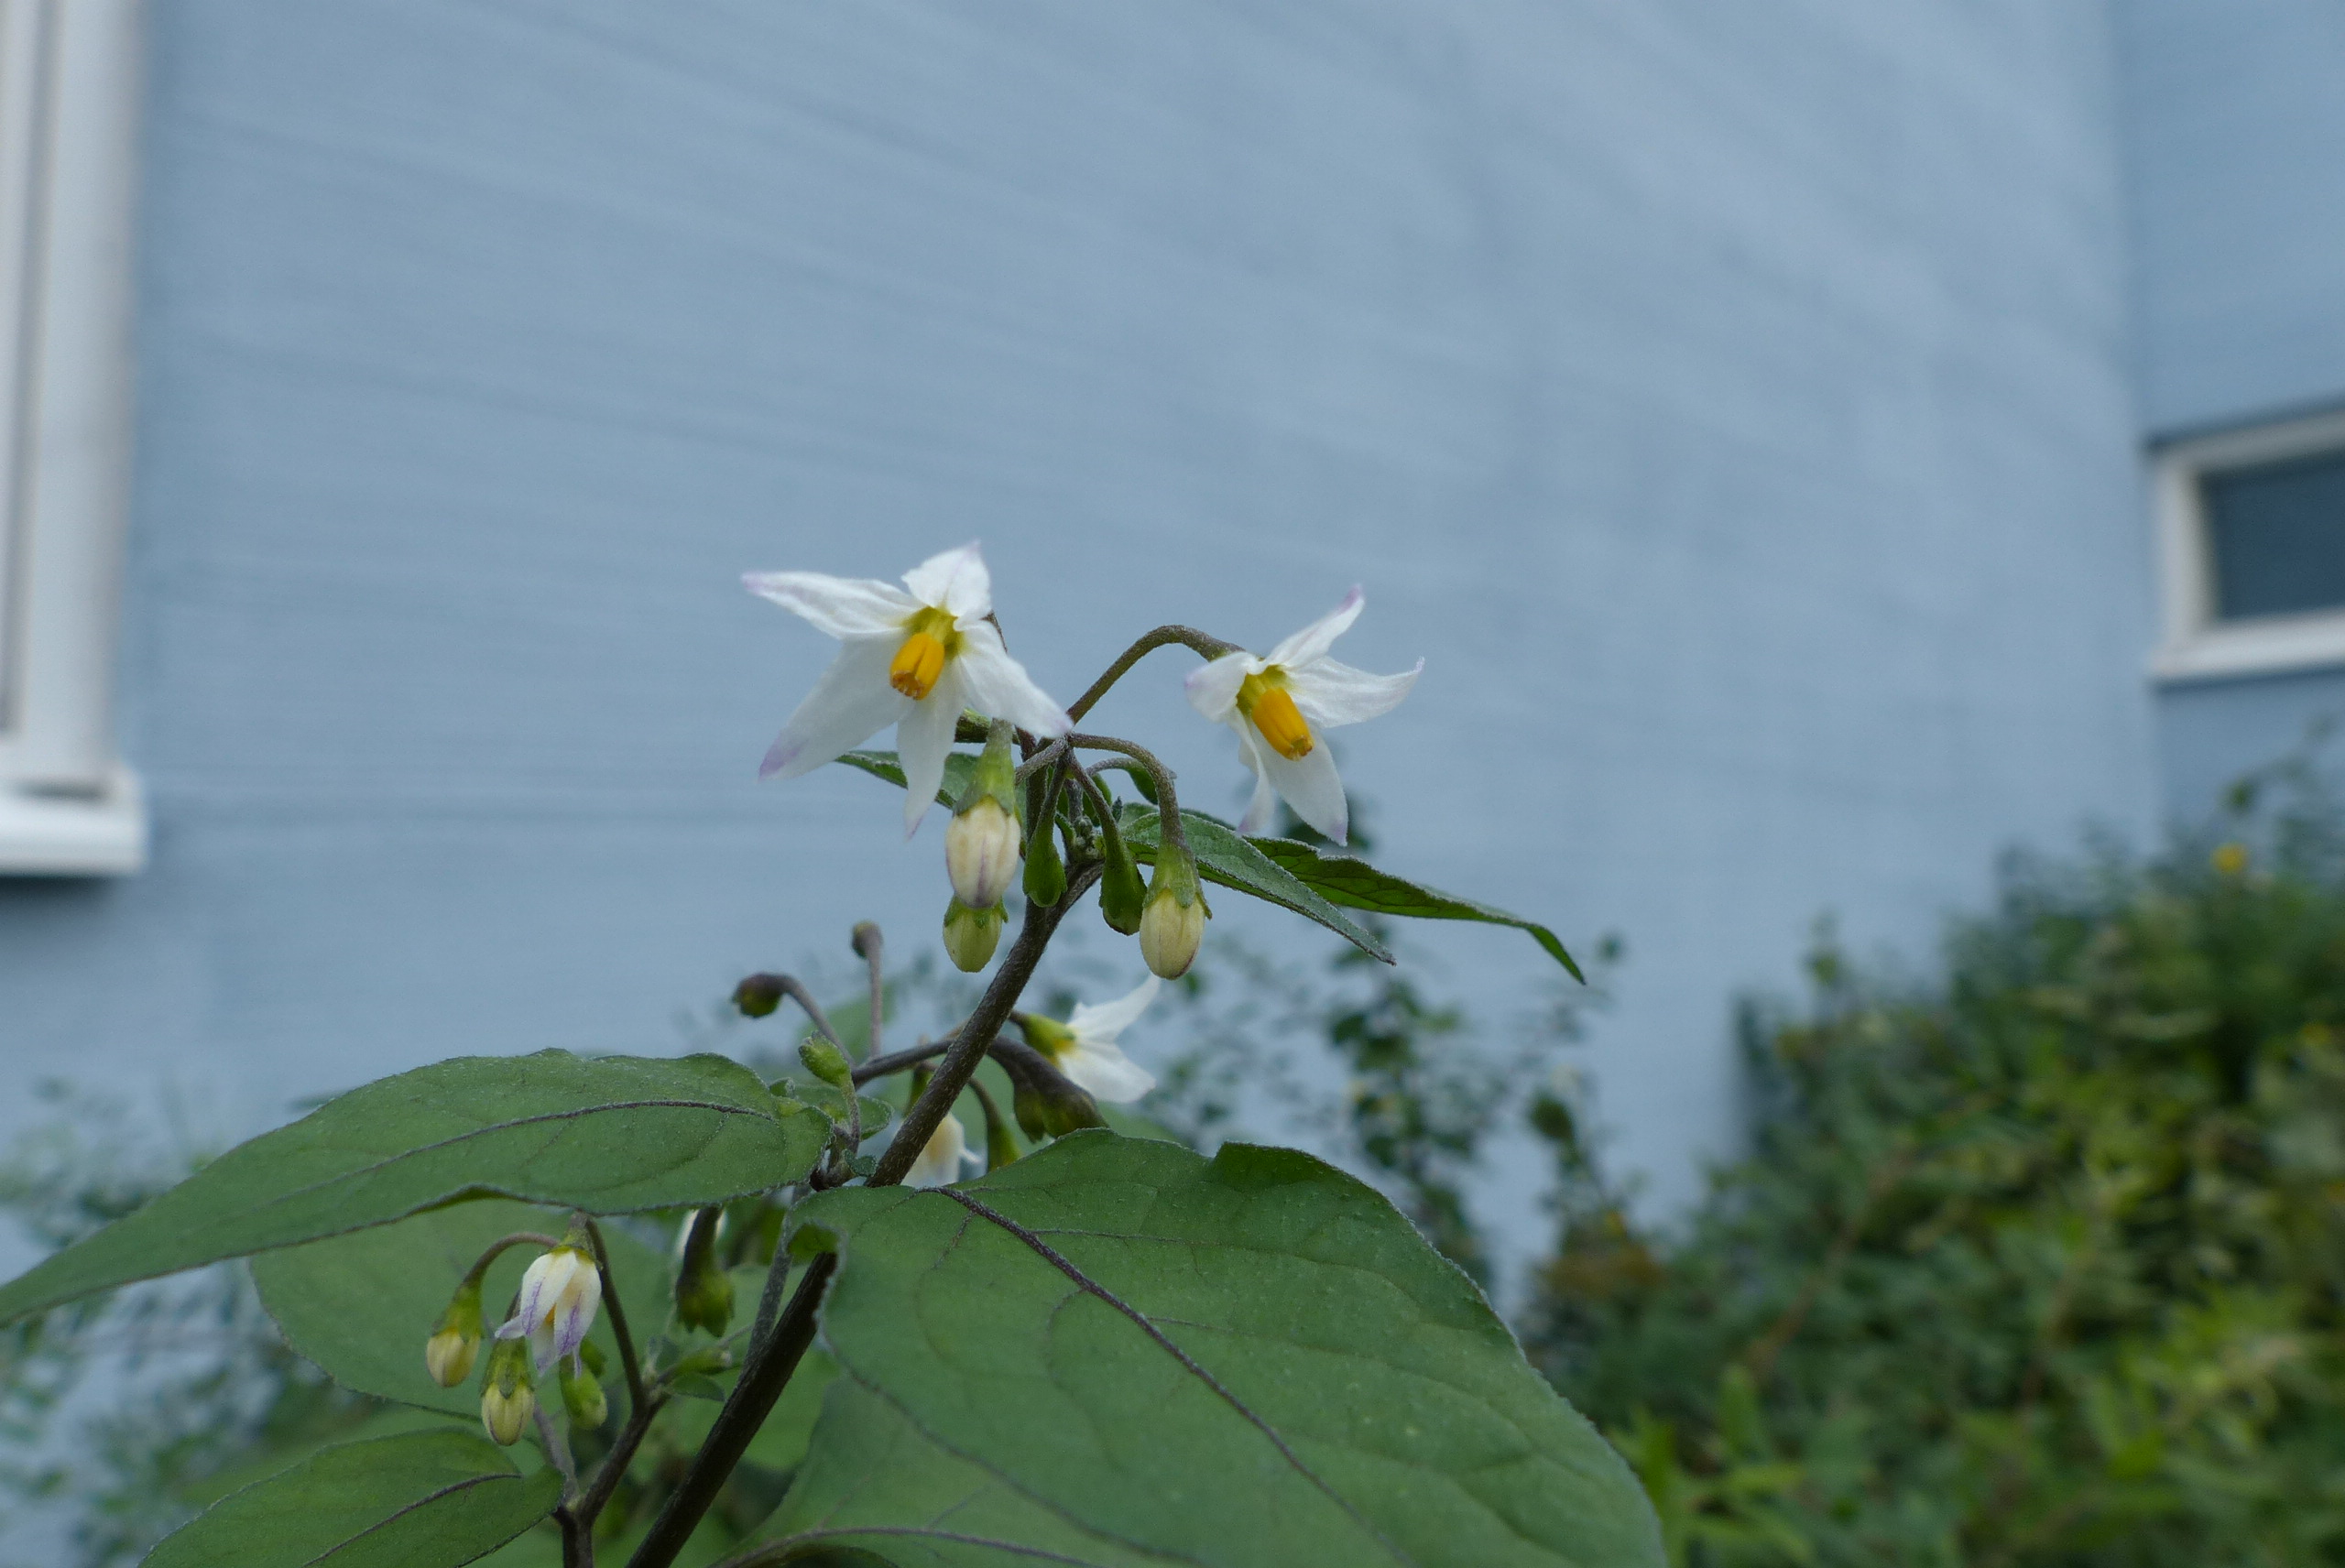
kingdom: Plantae
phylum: Tracheophyta
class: Magnoliopsida
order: Solanales
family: Solanaceae
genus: Solanum
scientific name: Solanum nigrum
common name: Black nightshade
